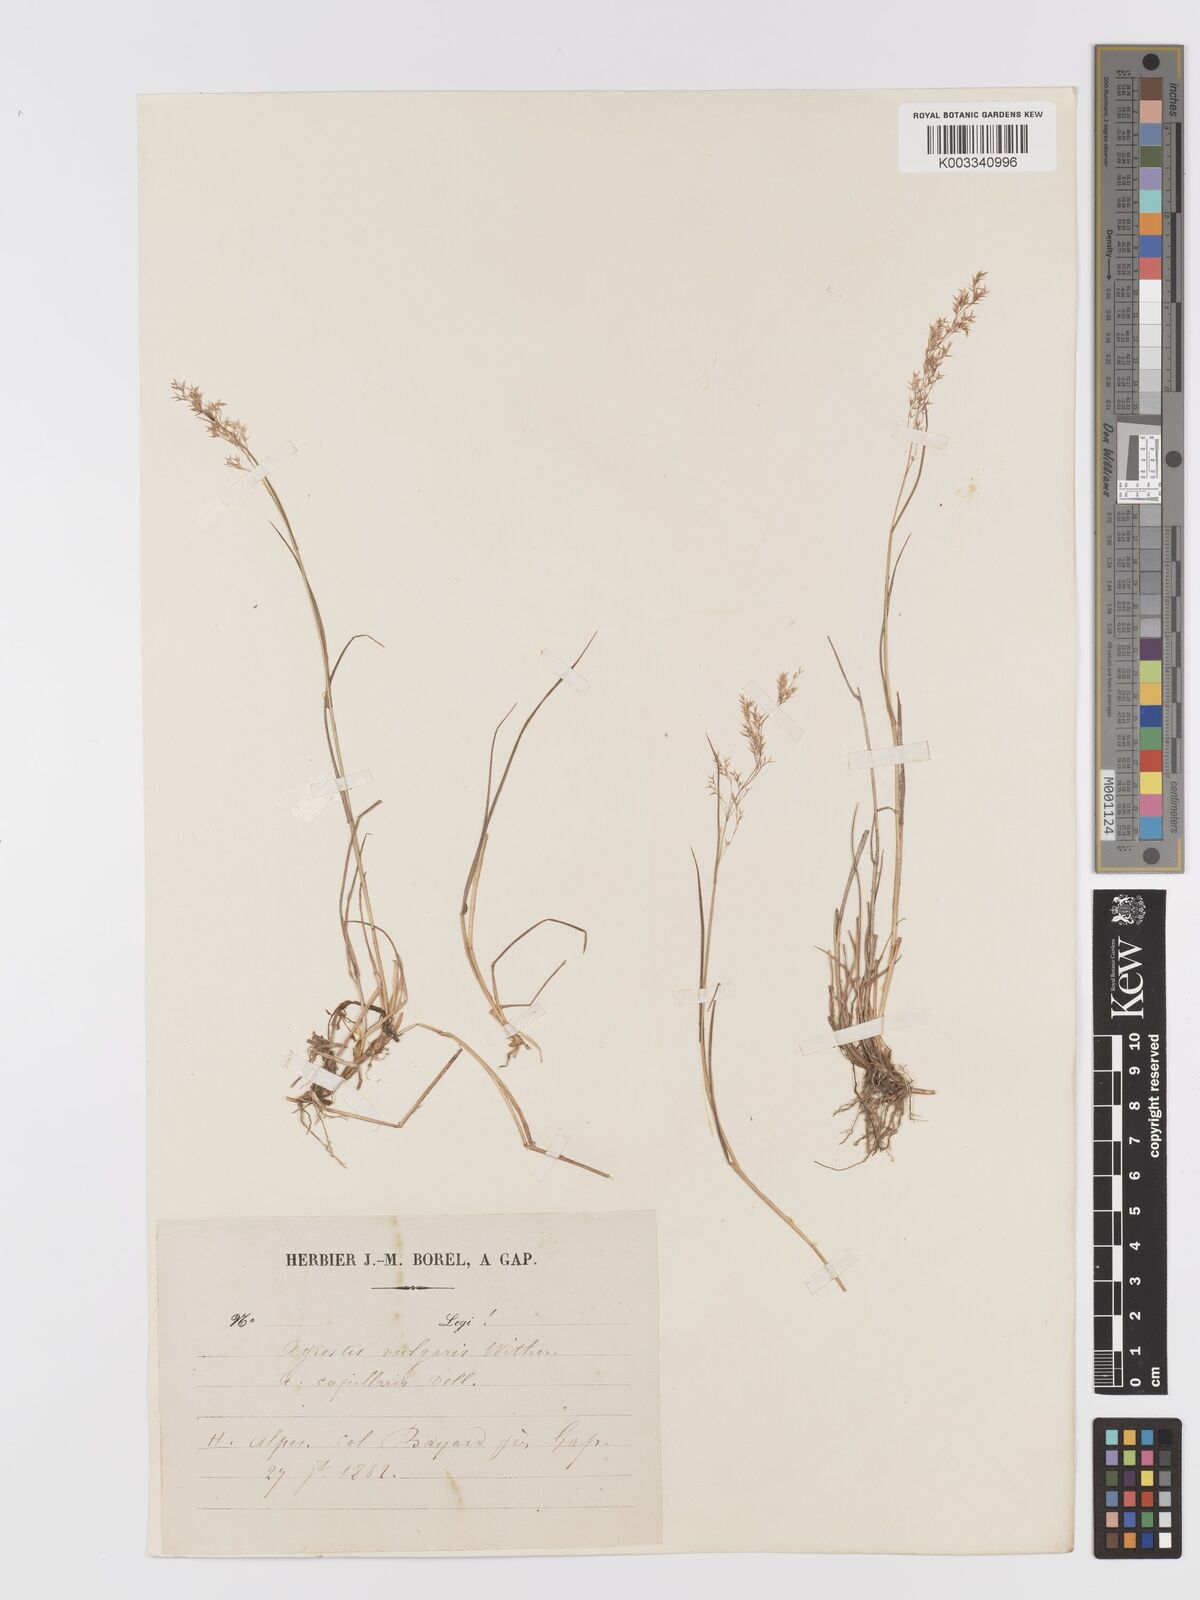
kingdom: Plantae
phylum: Tracheophyta
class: Liliopsida
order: Poales
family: Poaceae
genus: Agrostis
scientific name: Agrostis capillaris
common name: Colonial bentgrass
